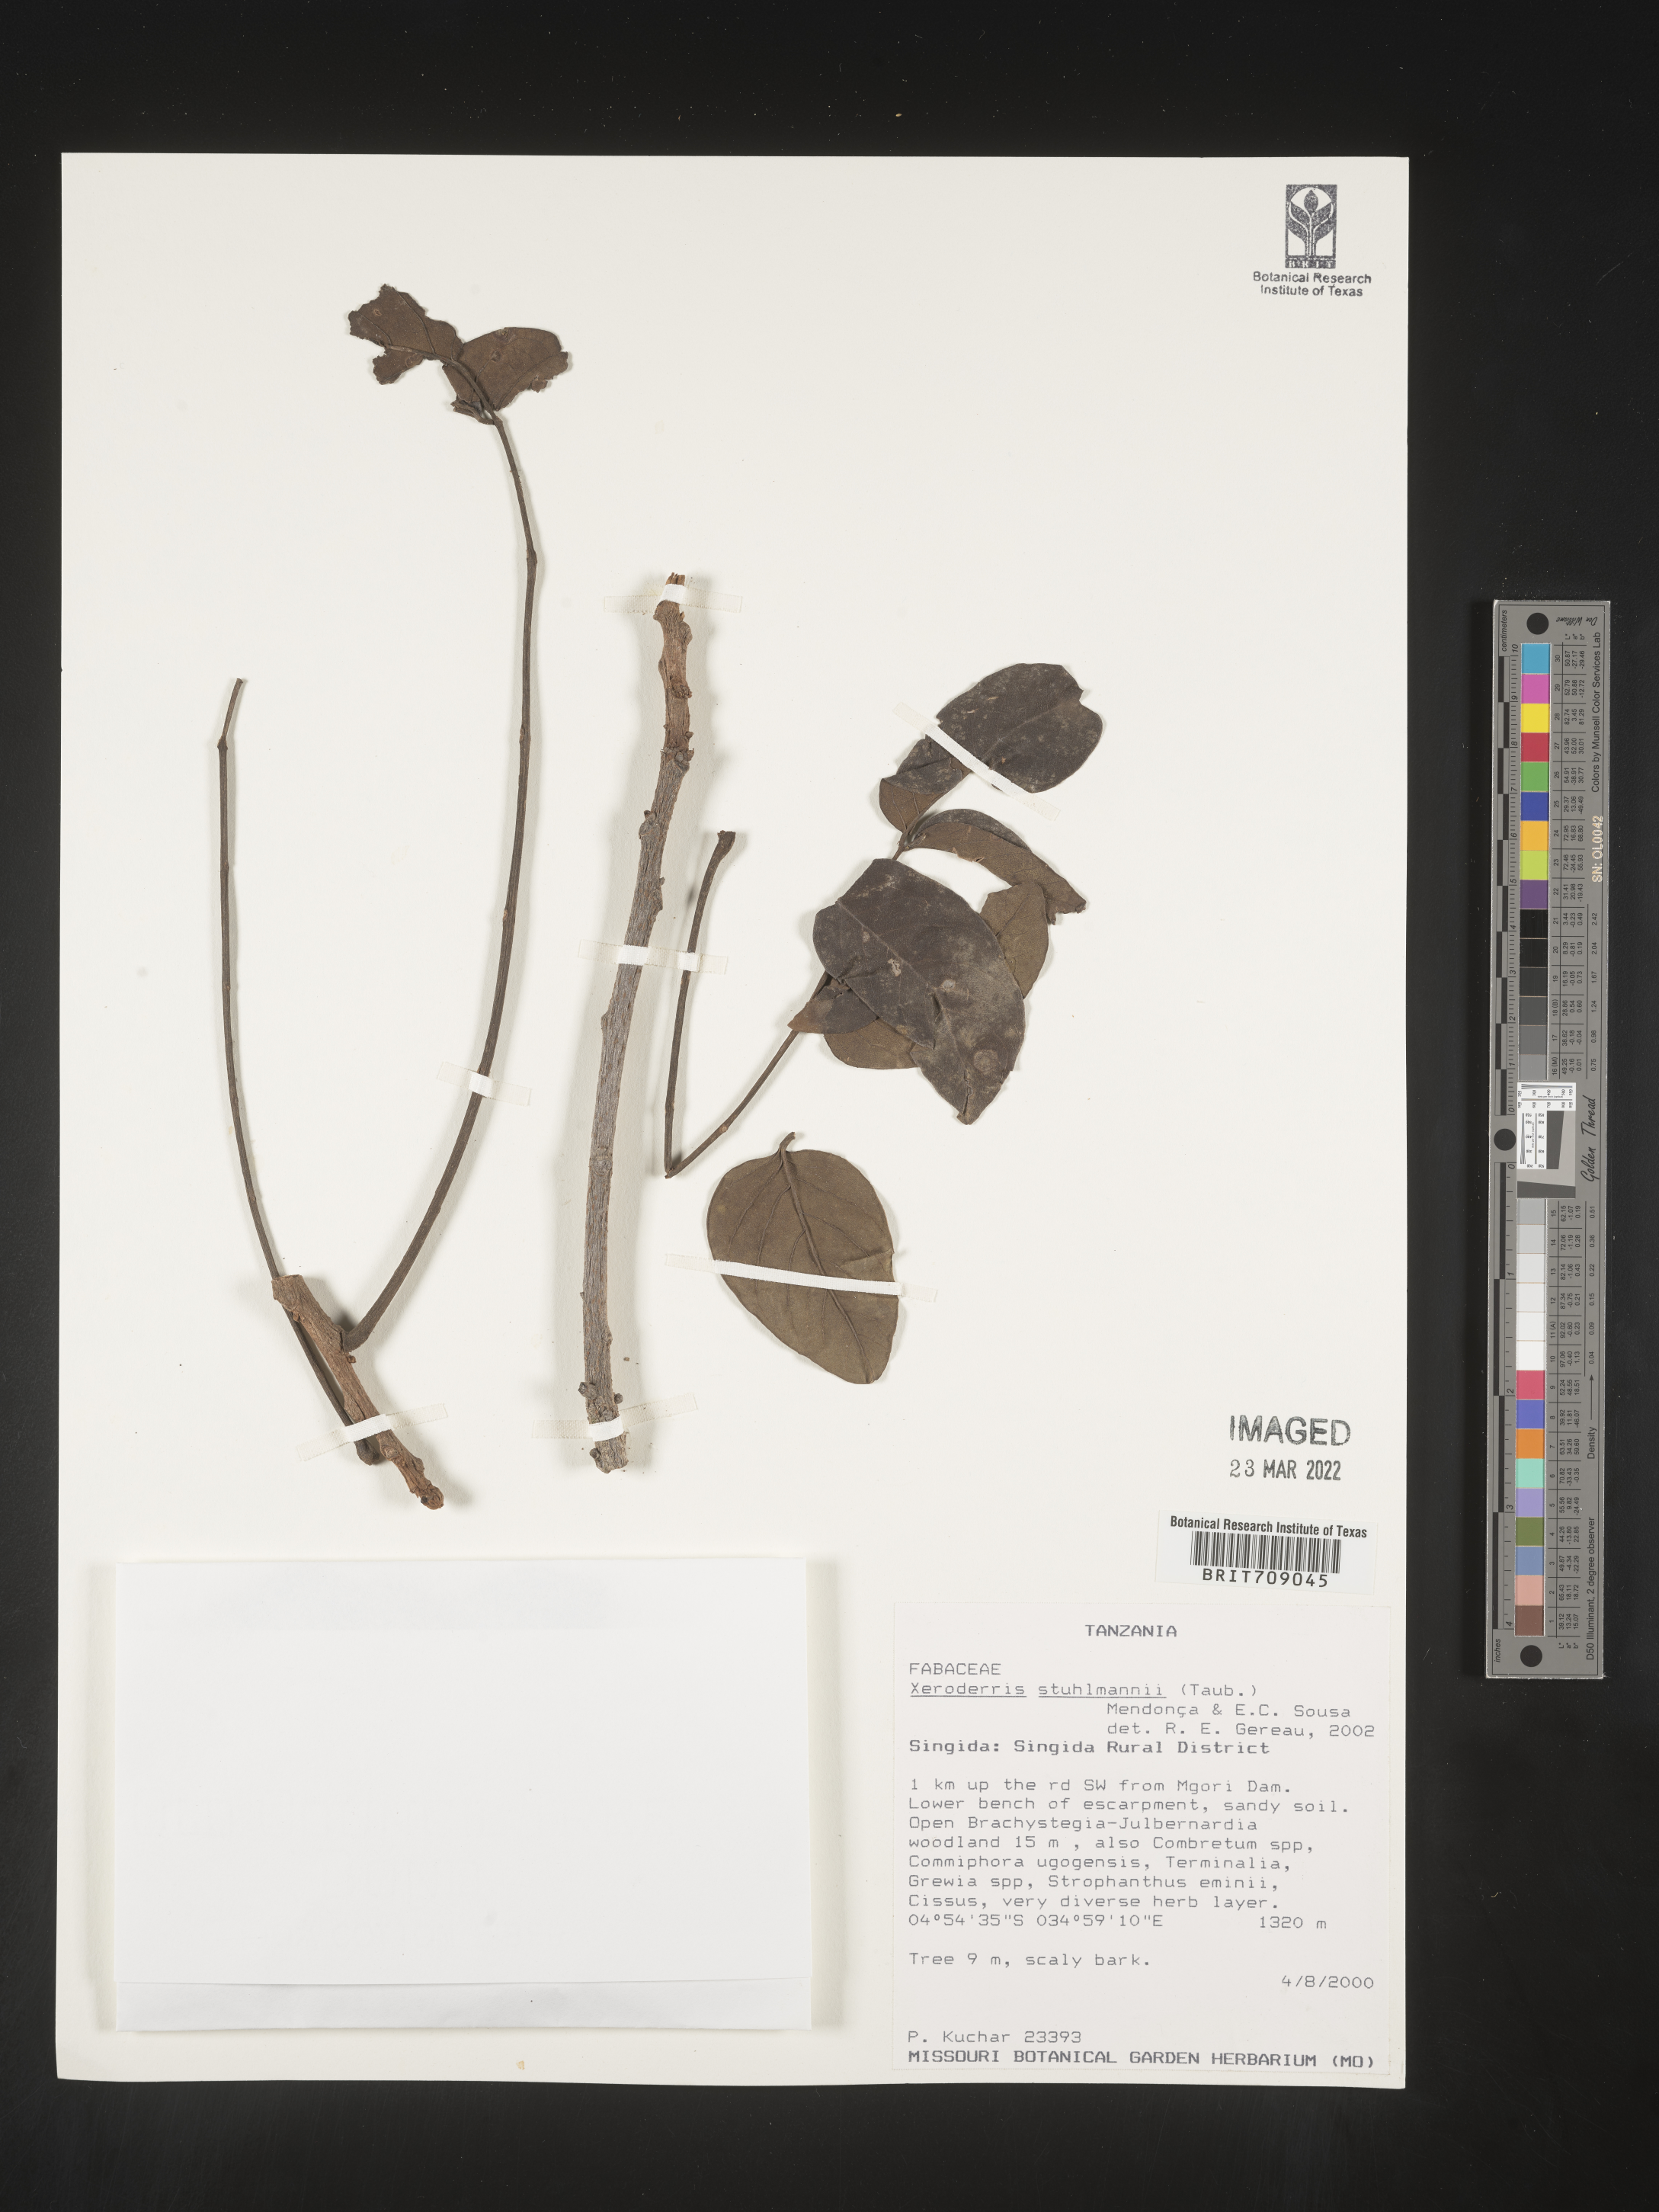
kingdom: Plantae
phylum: Tracheophyta
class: Magnoliopsida
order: Fabales
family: Fabaceae
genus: Aganope
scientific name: Aganope
